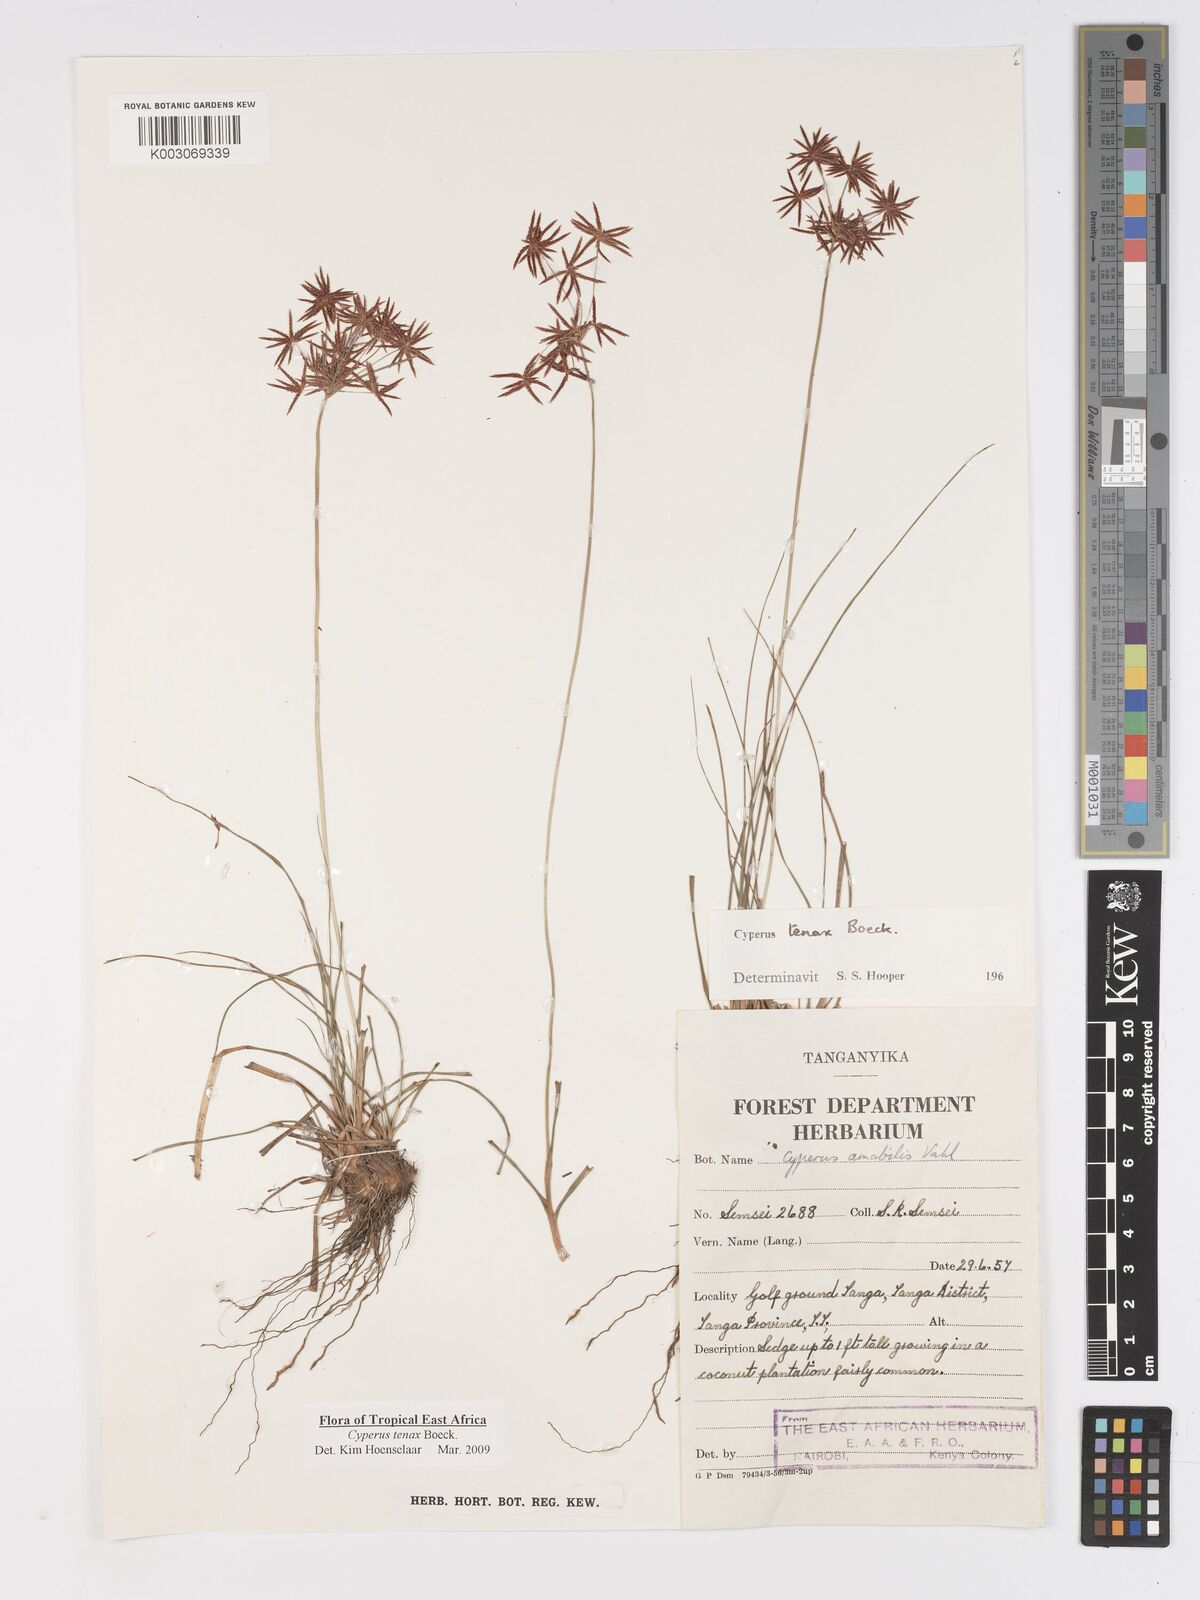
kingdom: Plantae
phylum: Tracheophyta
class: Liliopsida
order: Poales
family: Cyperaceae
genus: Cyperus
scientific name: Cyperus tenax
